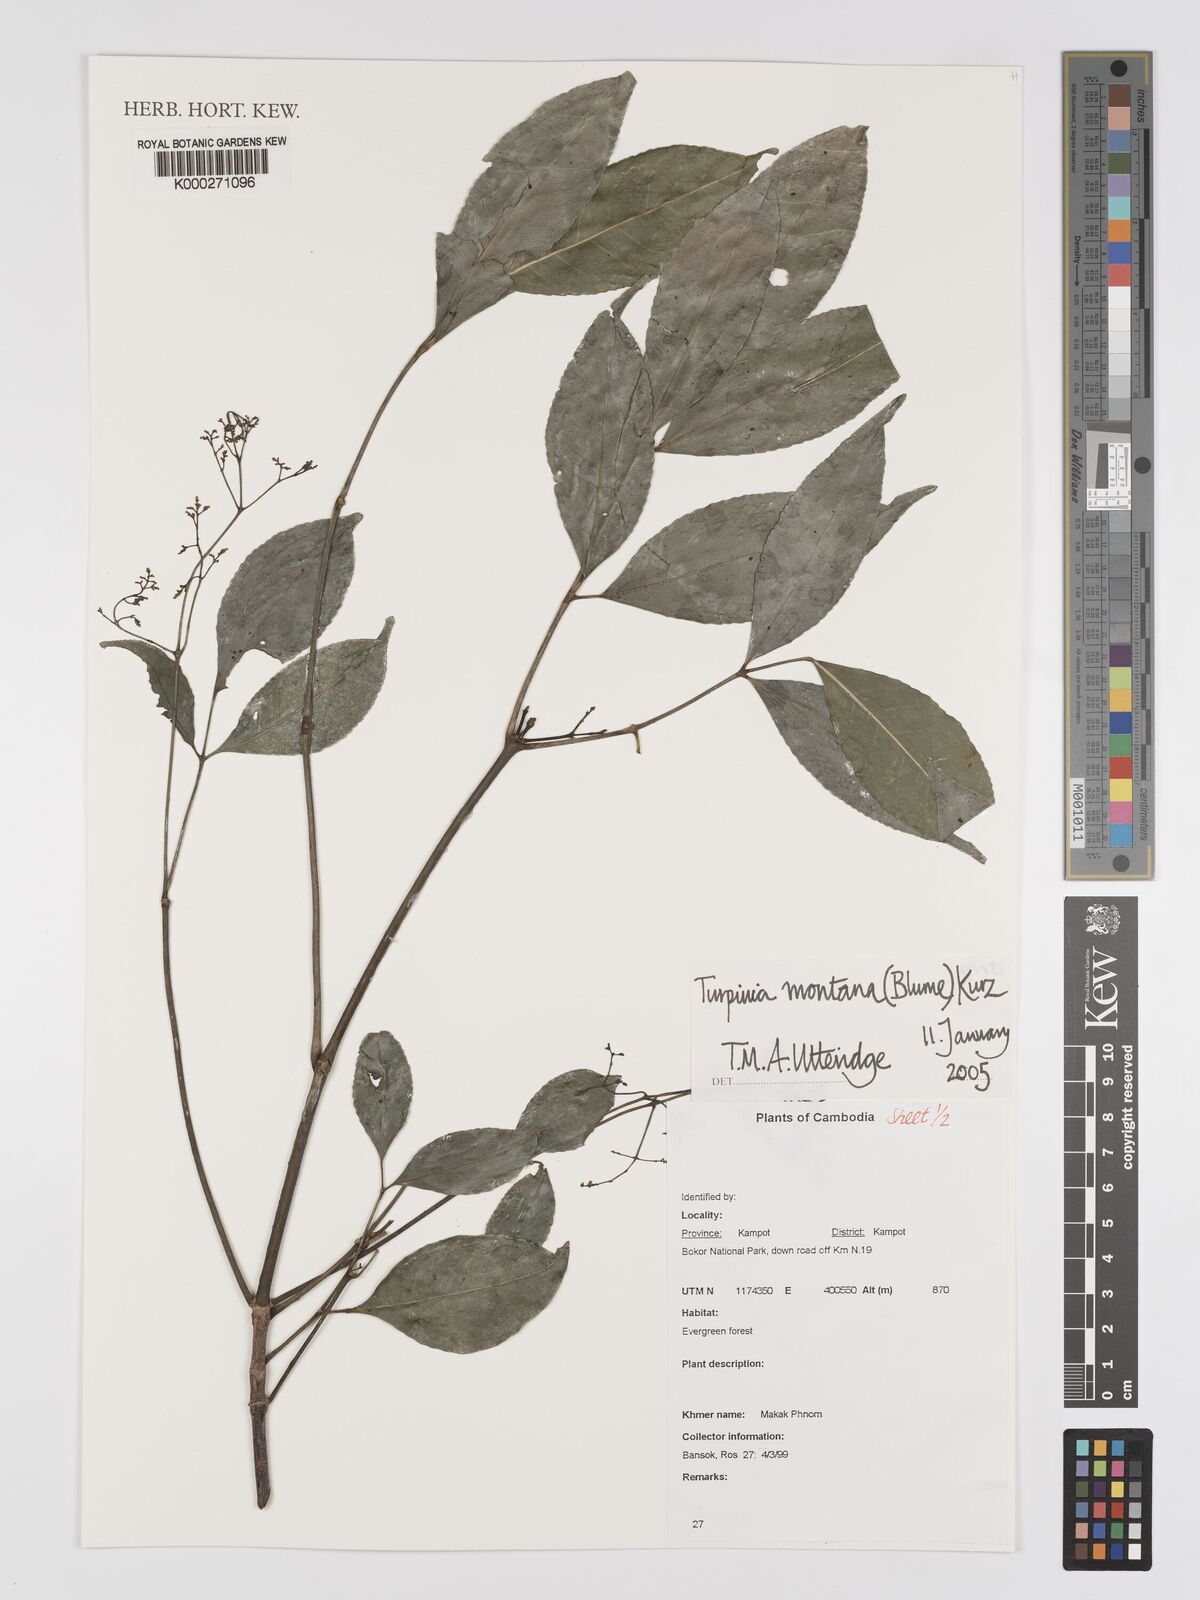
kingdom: Plantae
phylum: Tracheophyta
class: Magnoliopsida
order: Crossosomatales
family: Staphyleaceae
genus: Turpinia
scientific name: Turpinia montana
